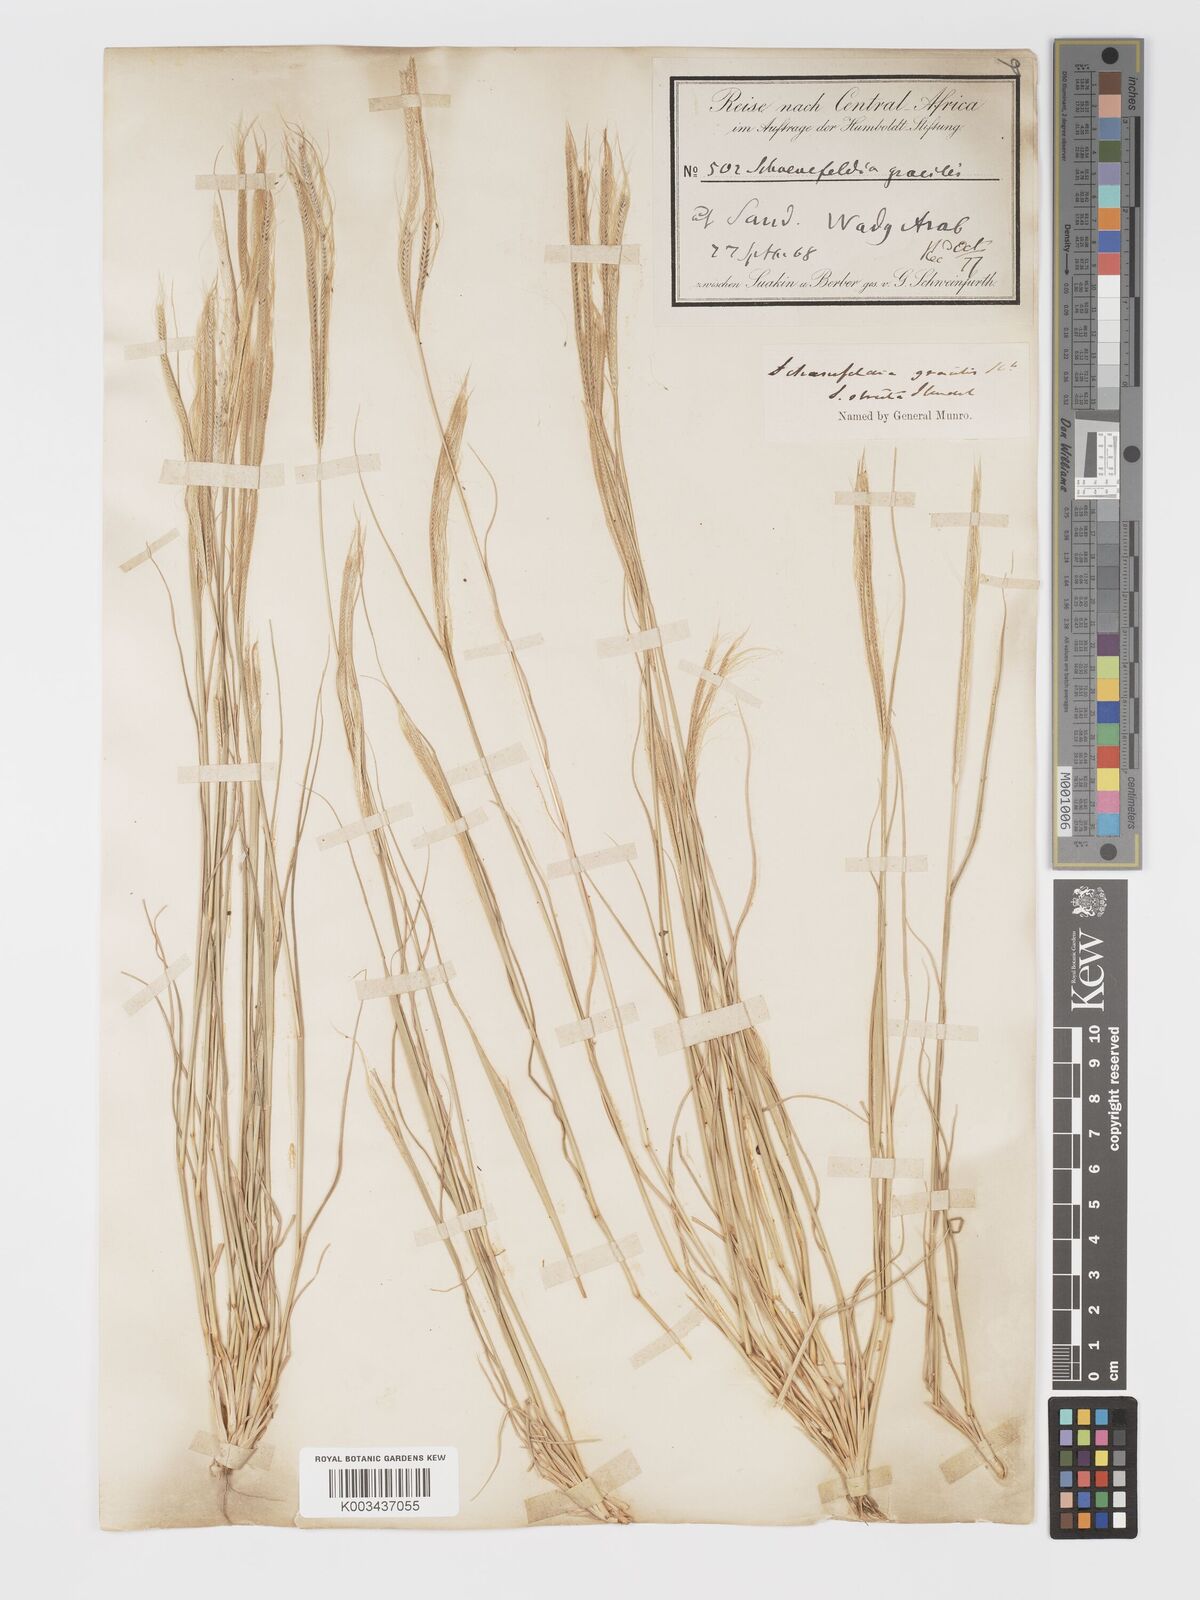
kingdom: Plantae
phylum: Tracheophyta
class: Liliopsida
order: Poales
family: Poaceae
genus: Schoenefeldia
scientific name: Schoenefeldia gracilis
